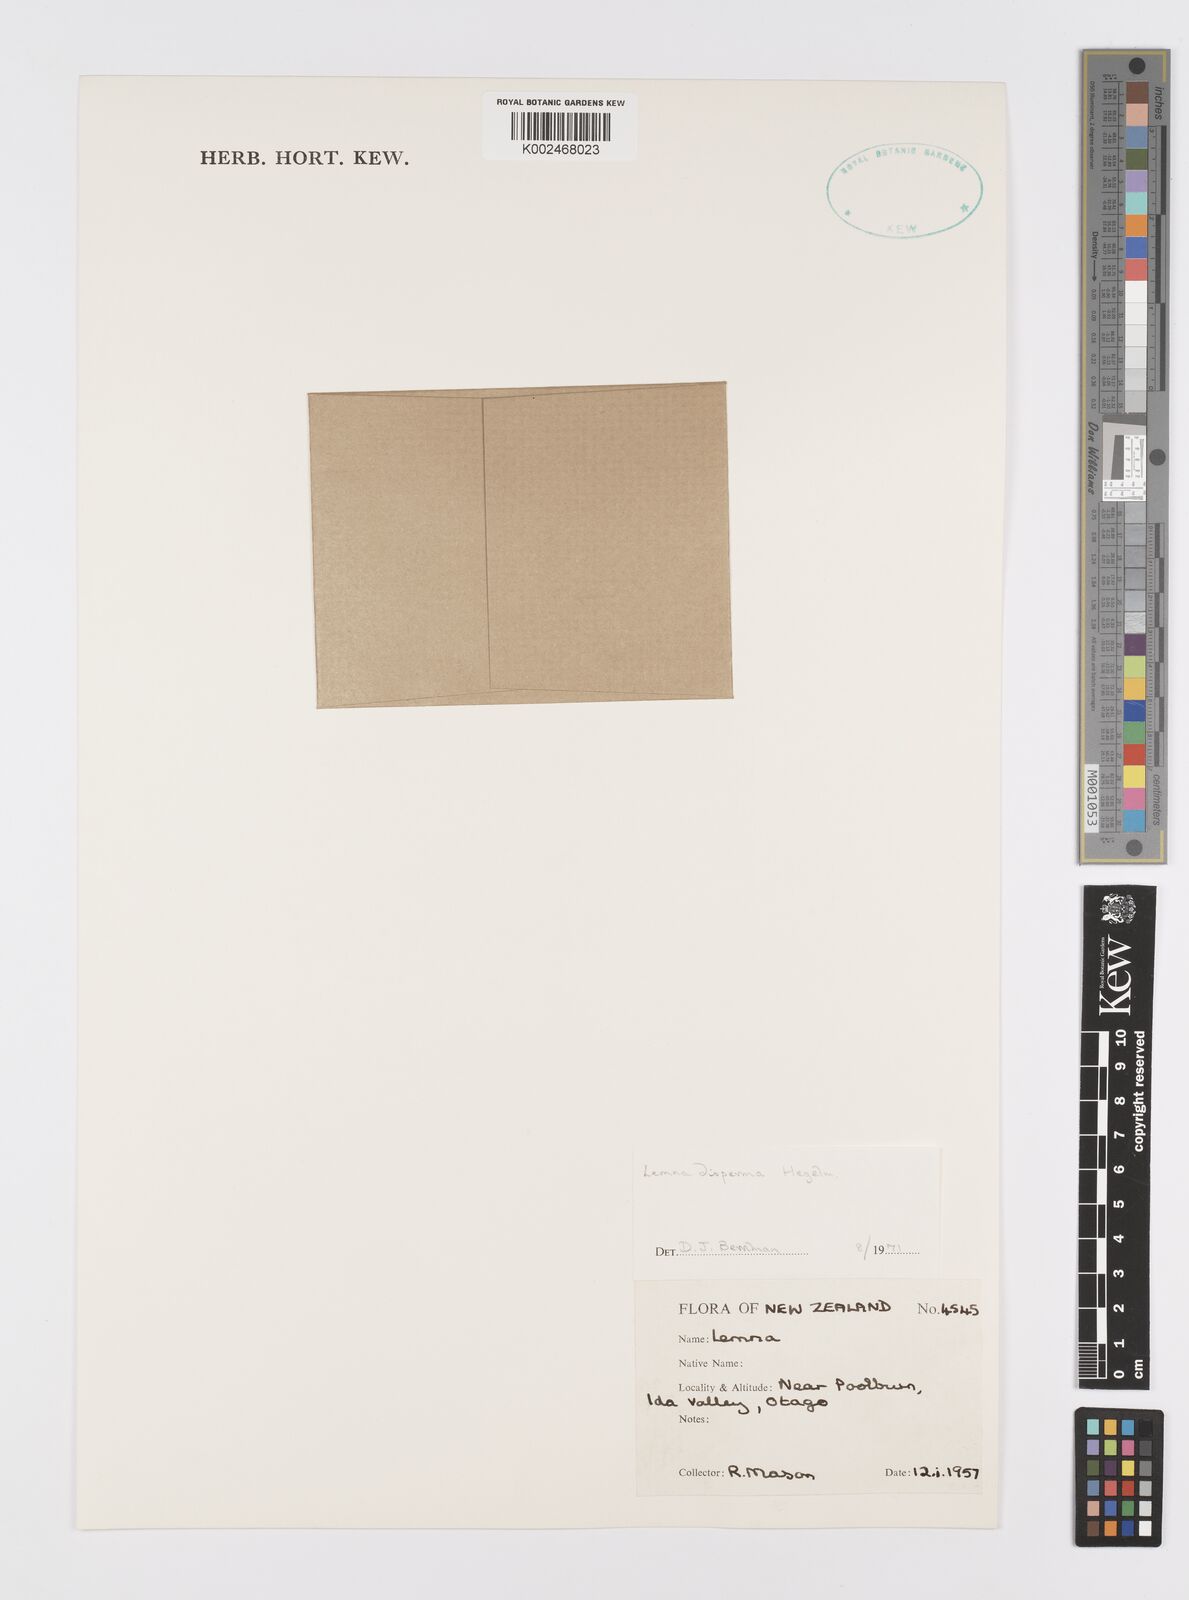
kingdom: Plantae
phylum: Tracheophyta
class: Liliopsida
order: Alismatales
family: Araceae
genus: Lemna
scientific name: Lemna disperma
